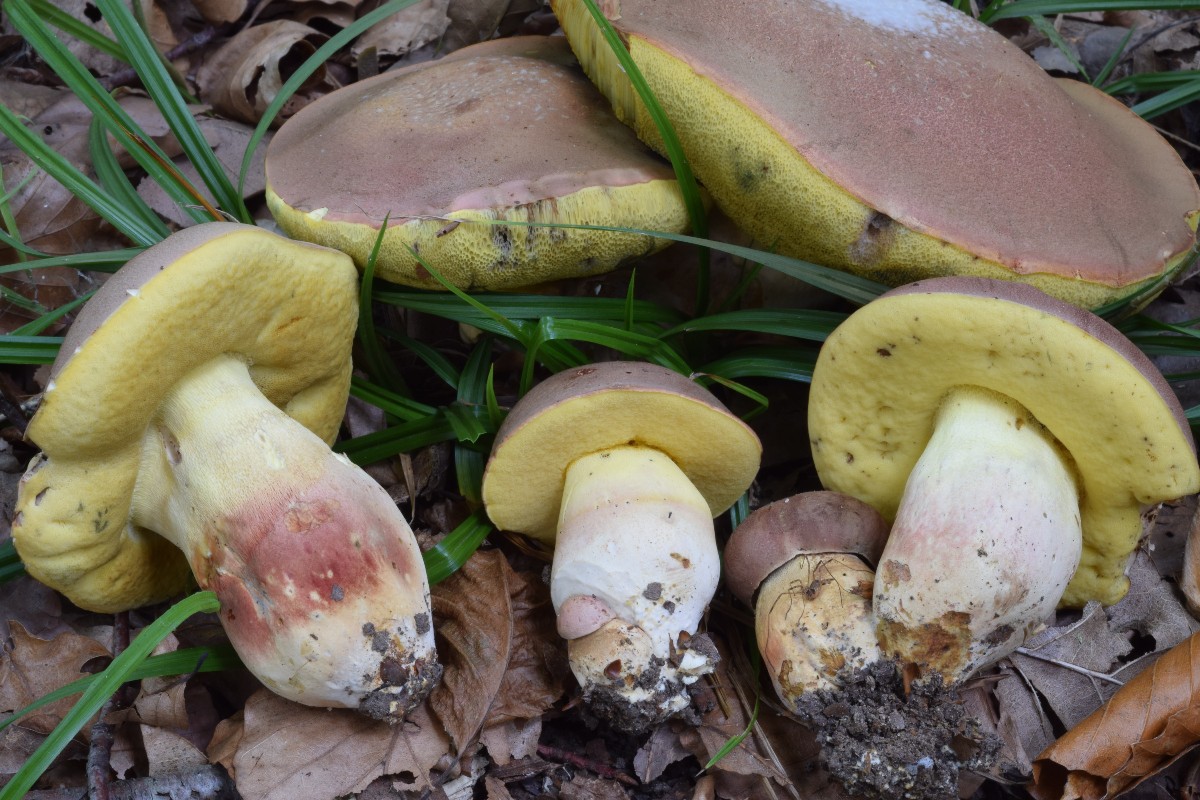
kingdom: Fungi
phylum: Basidiomycota
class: Agaricomycetes
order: Boletales
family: Boletaceae
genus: Butyriboletus
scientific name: Butyriboletus fuscoroseus
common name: brunrosa rørhat
